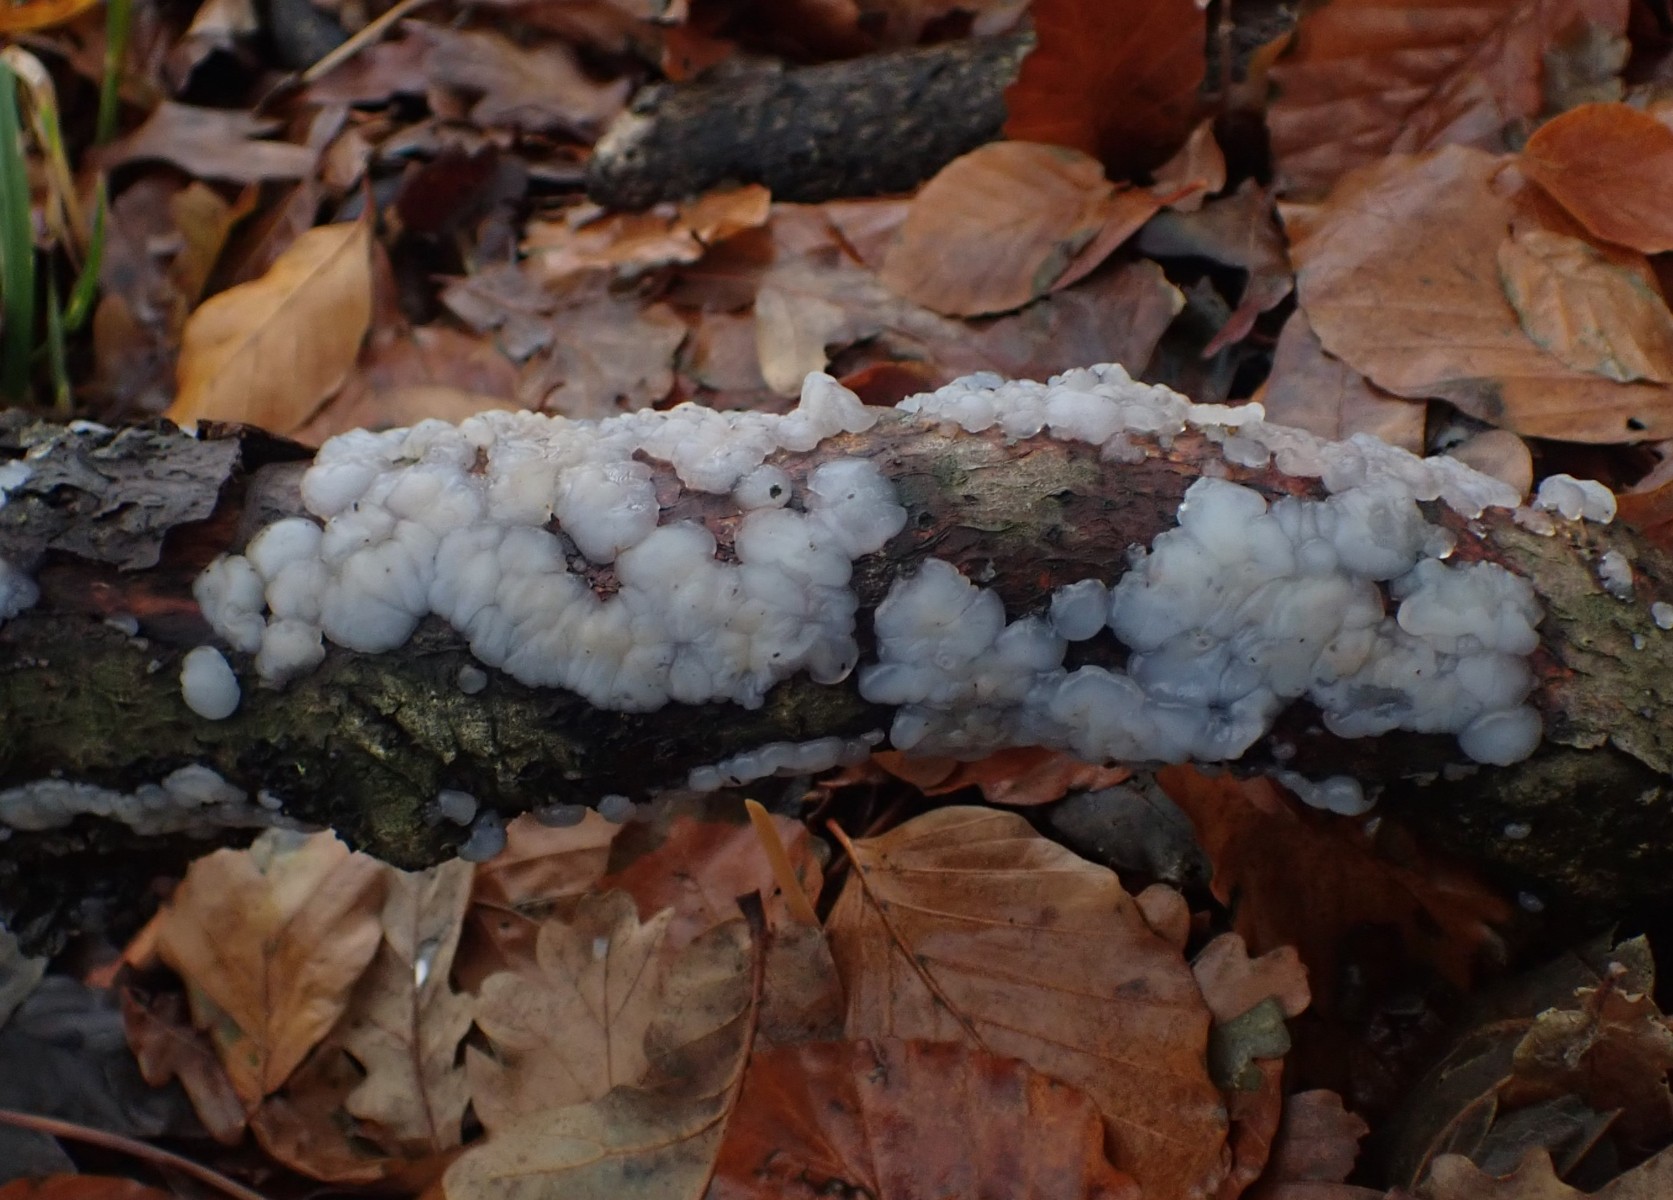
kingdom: Fungi
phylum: Basidiomycota
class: Agaricomycetes
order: Auriculariales
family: Auriculariaceae
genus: Exidia
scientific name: Exidia thuretiana
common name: hvidlig bævretop
